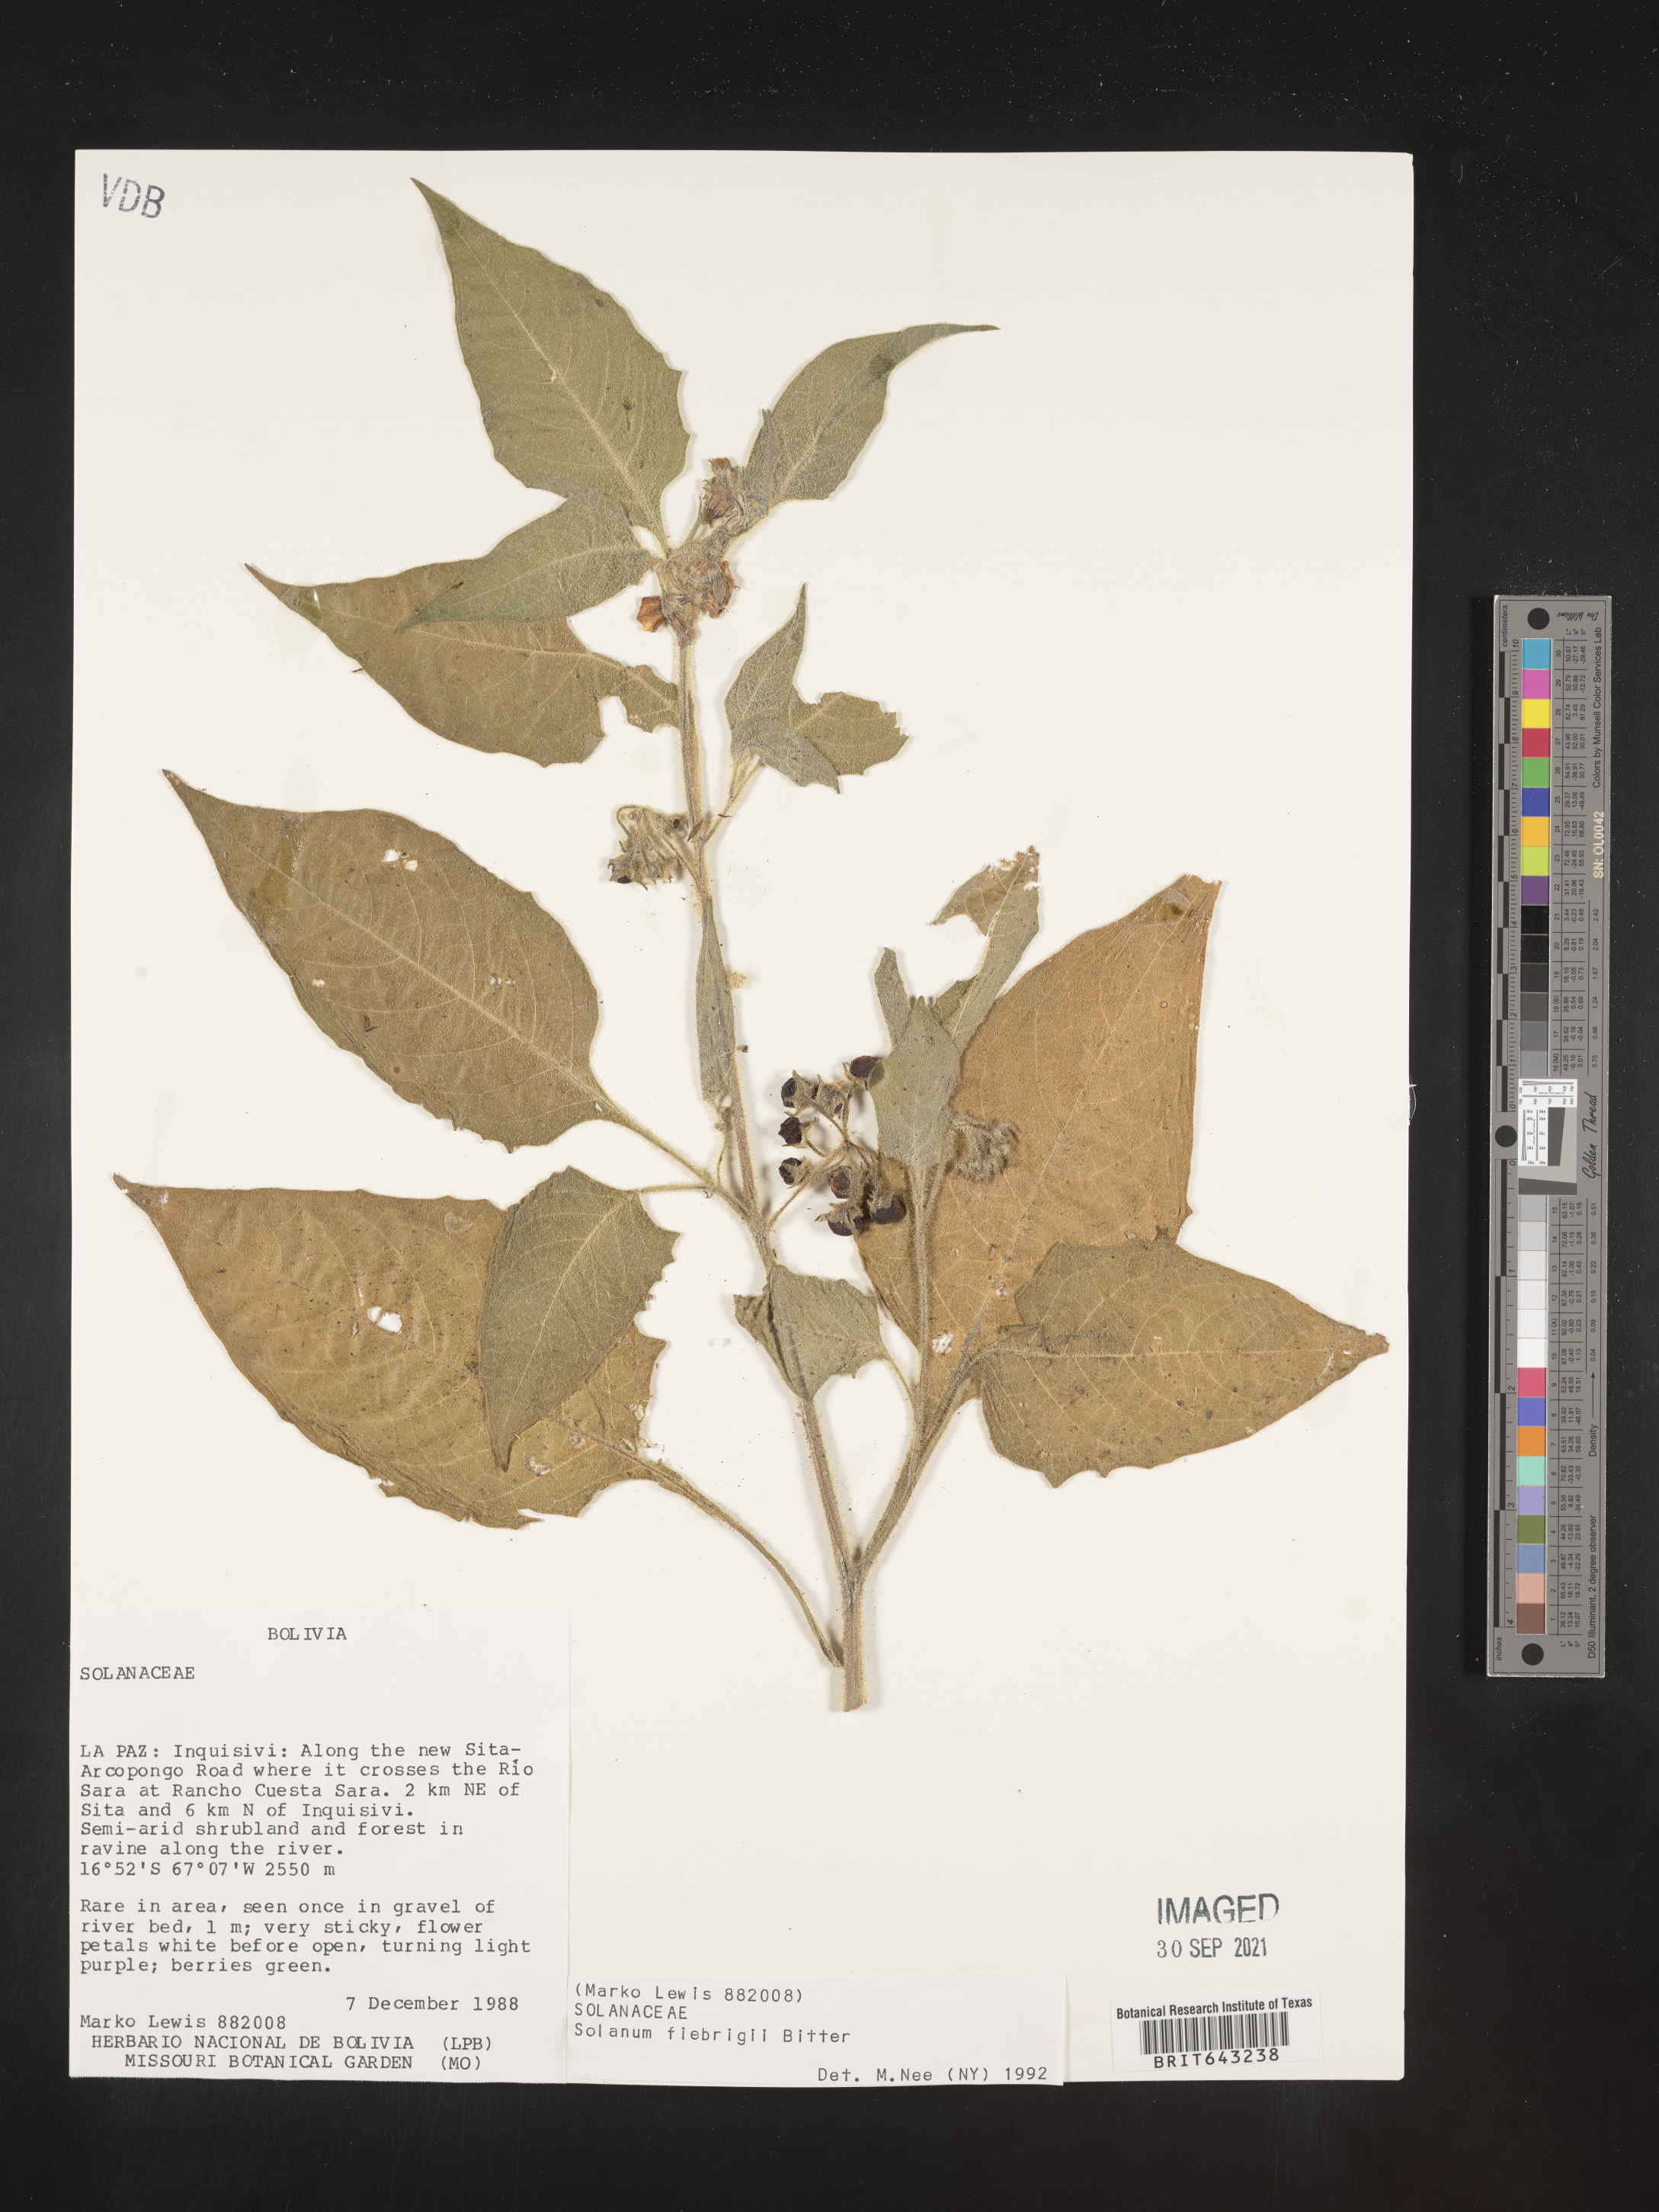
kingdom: Plantae
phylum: Tracheophyta
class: Magnoliopsida
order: Solanales
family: Solanaceae
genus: Solanum
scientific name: Solanum
